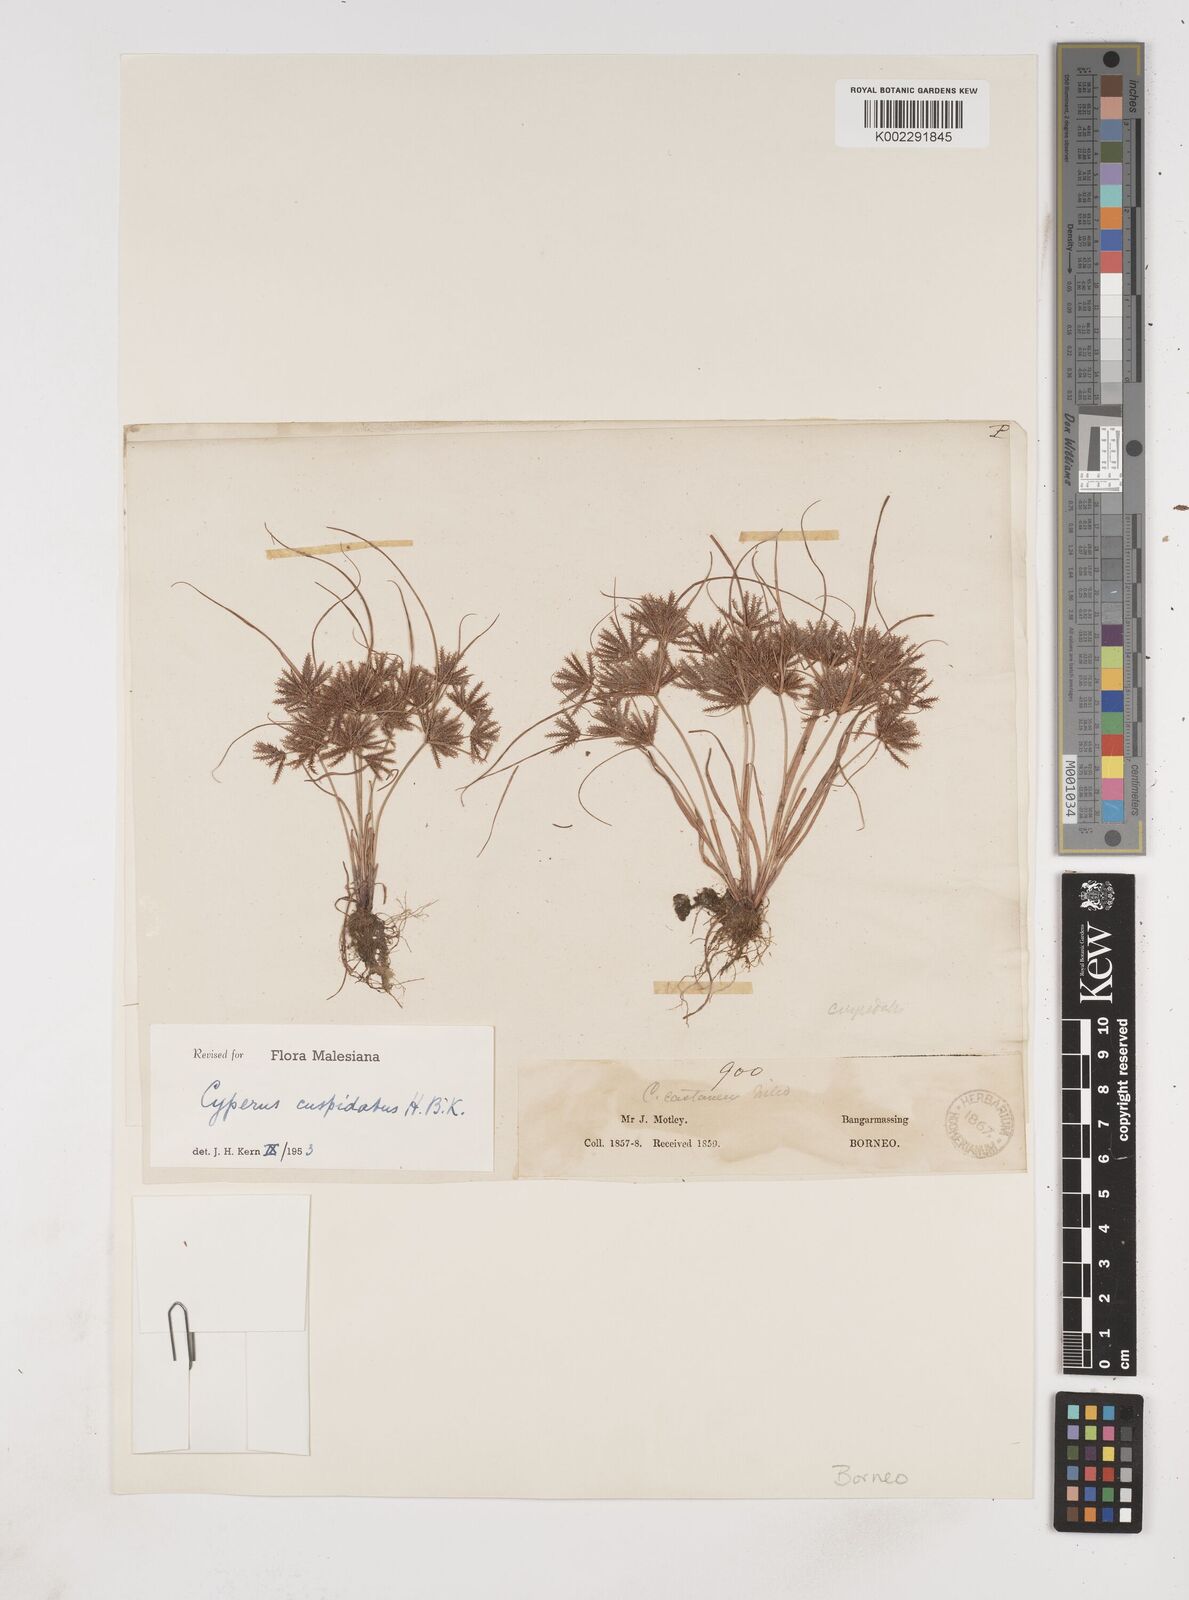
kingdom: Plantae
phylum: Tracheophyta
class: Liliopsida
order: Poales
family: Cyperaceae
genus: Cyperus
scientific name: Cyperus cuspidatus
